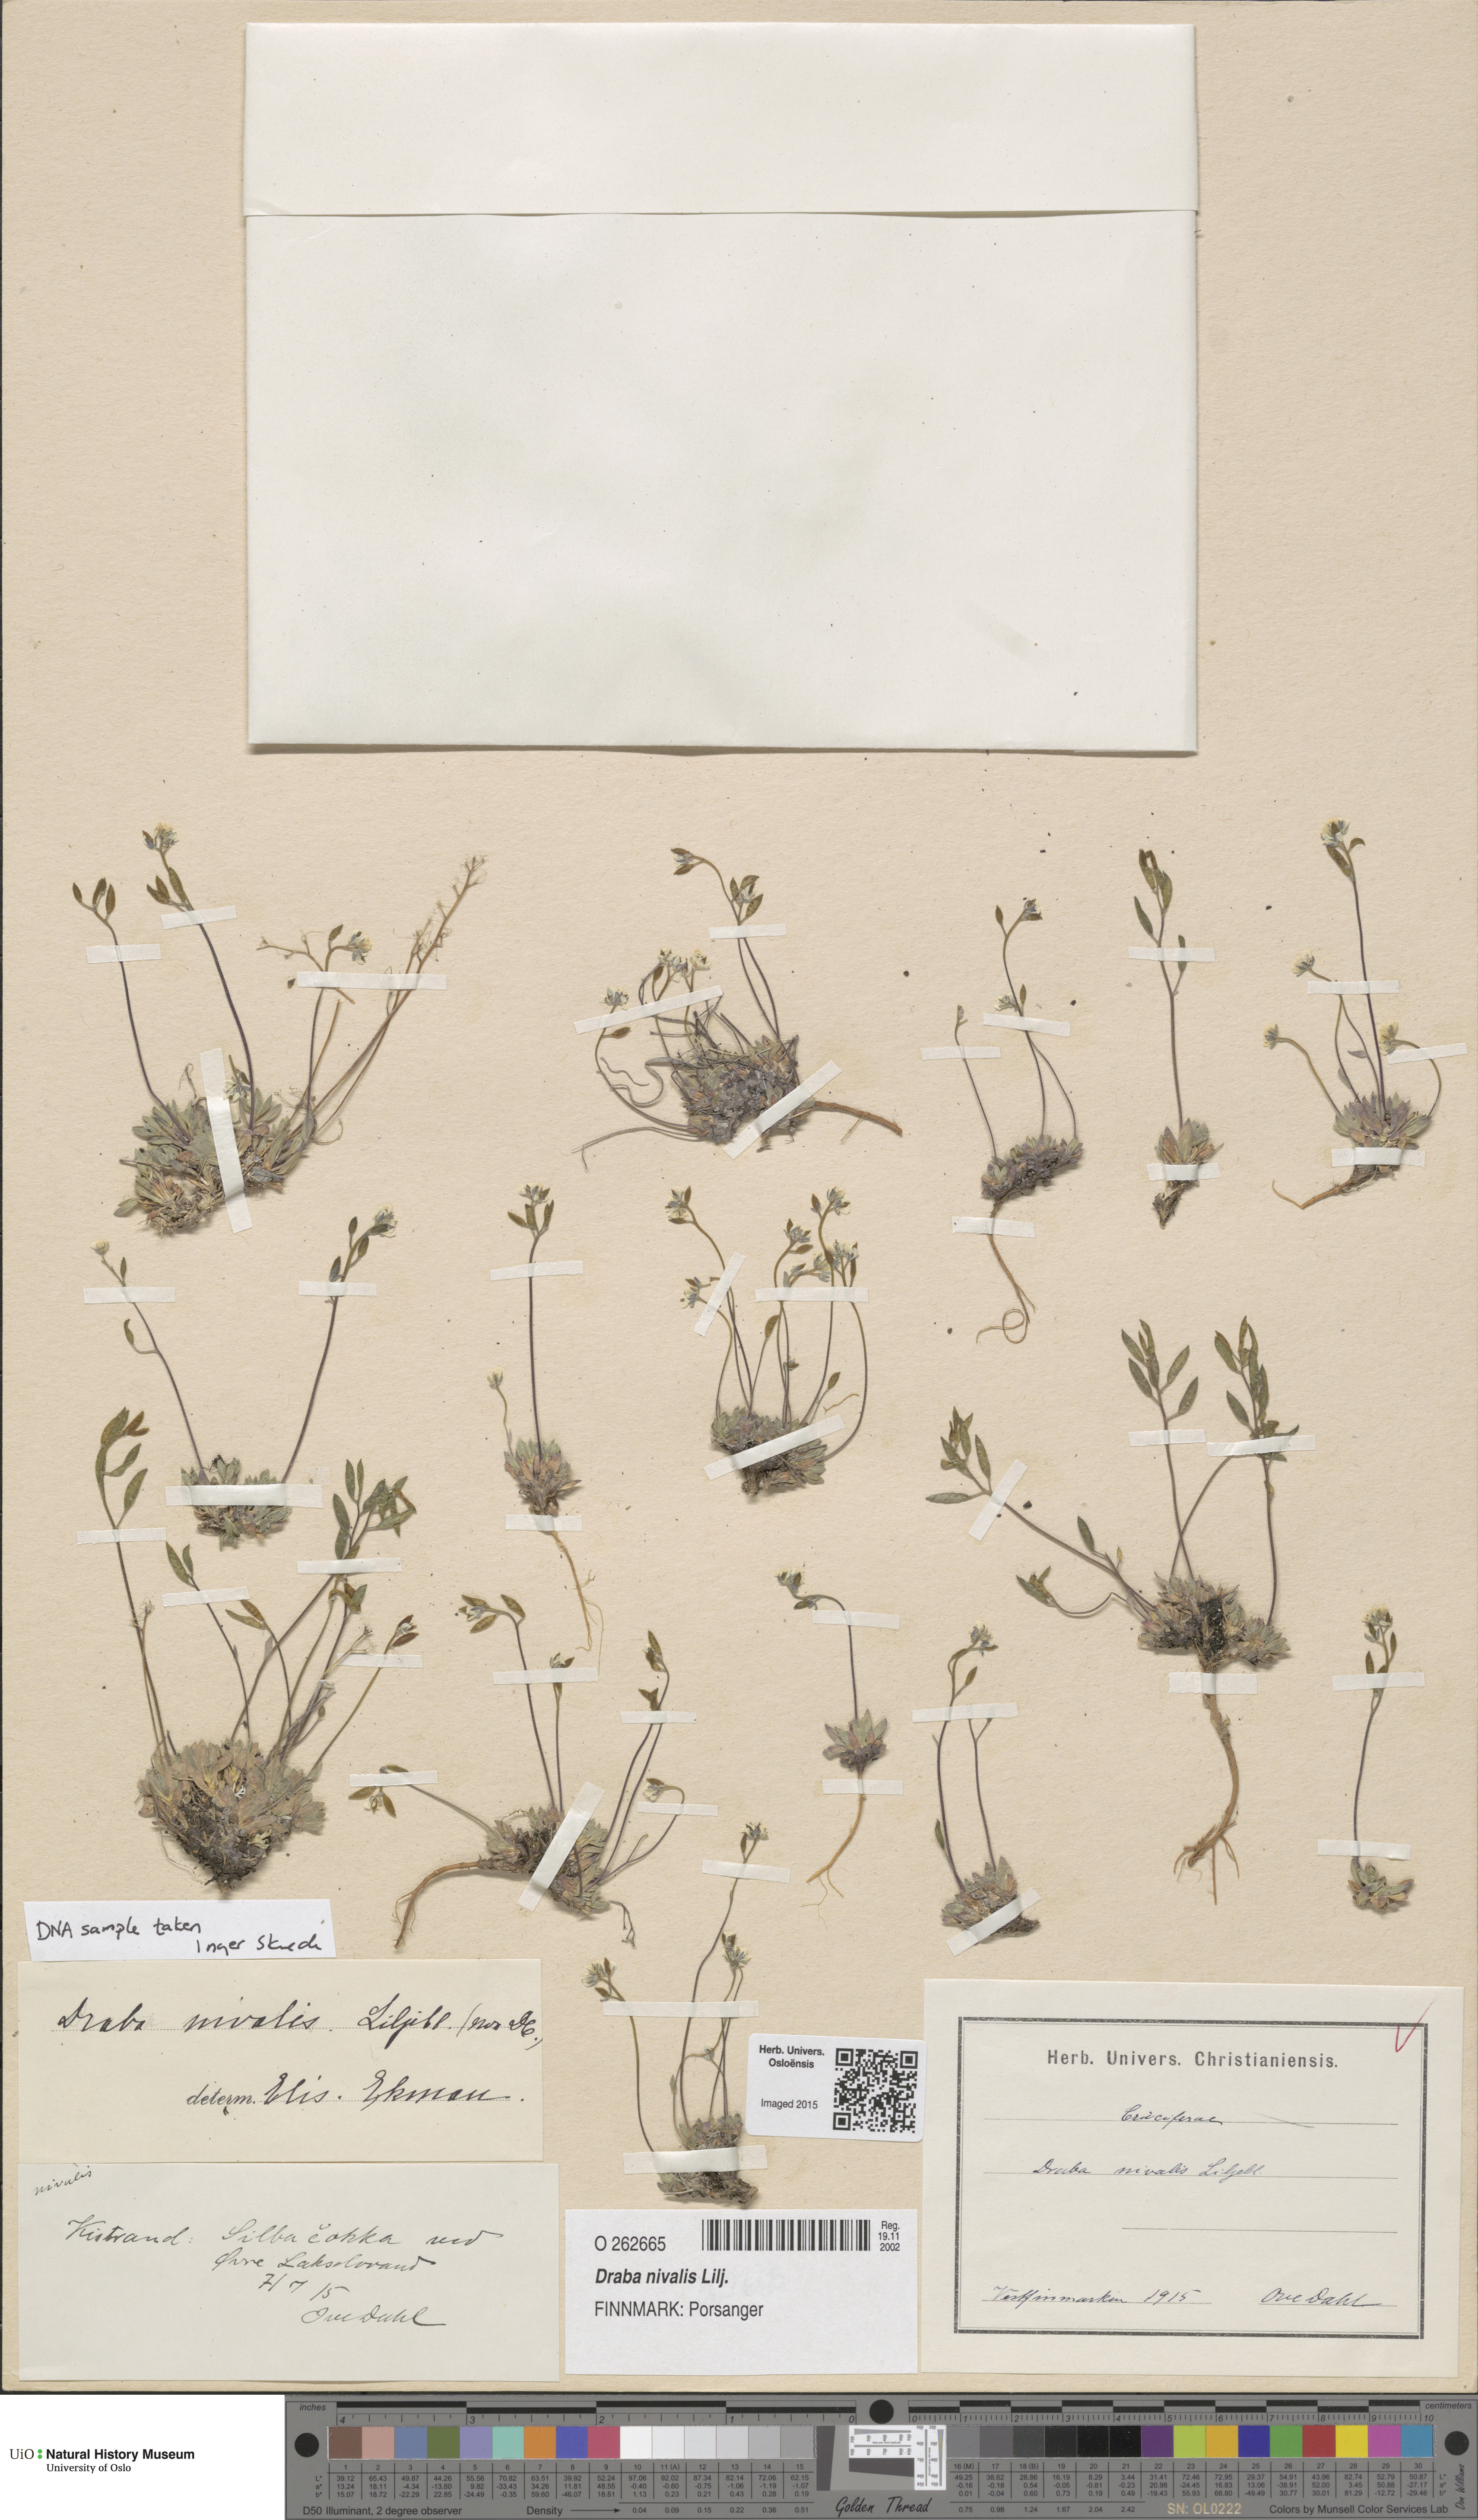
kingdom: Plantae
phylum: Tracheophyta
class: Magnoliopsida
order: Brassicales
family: Brassicaceae
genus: Draba
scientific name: Draba nivalis
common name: Snow draba
